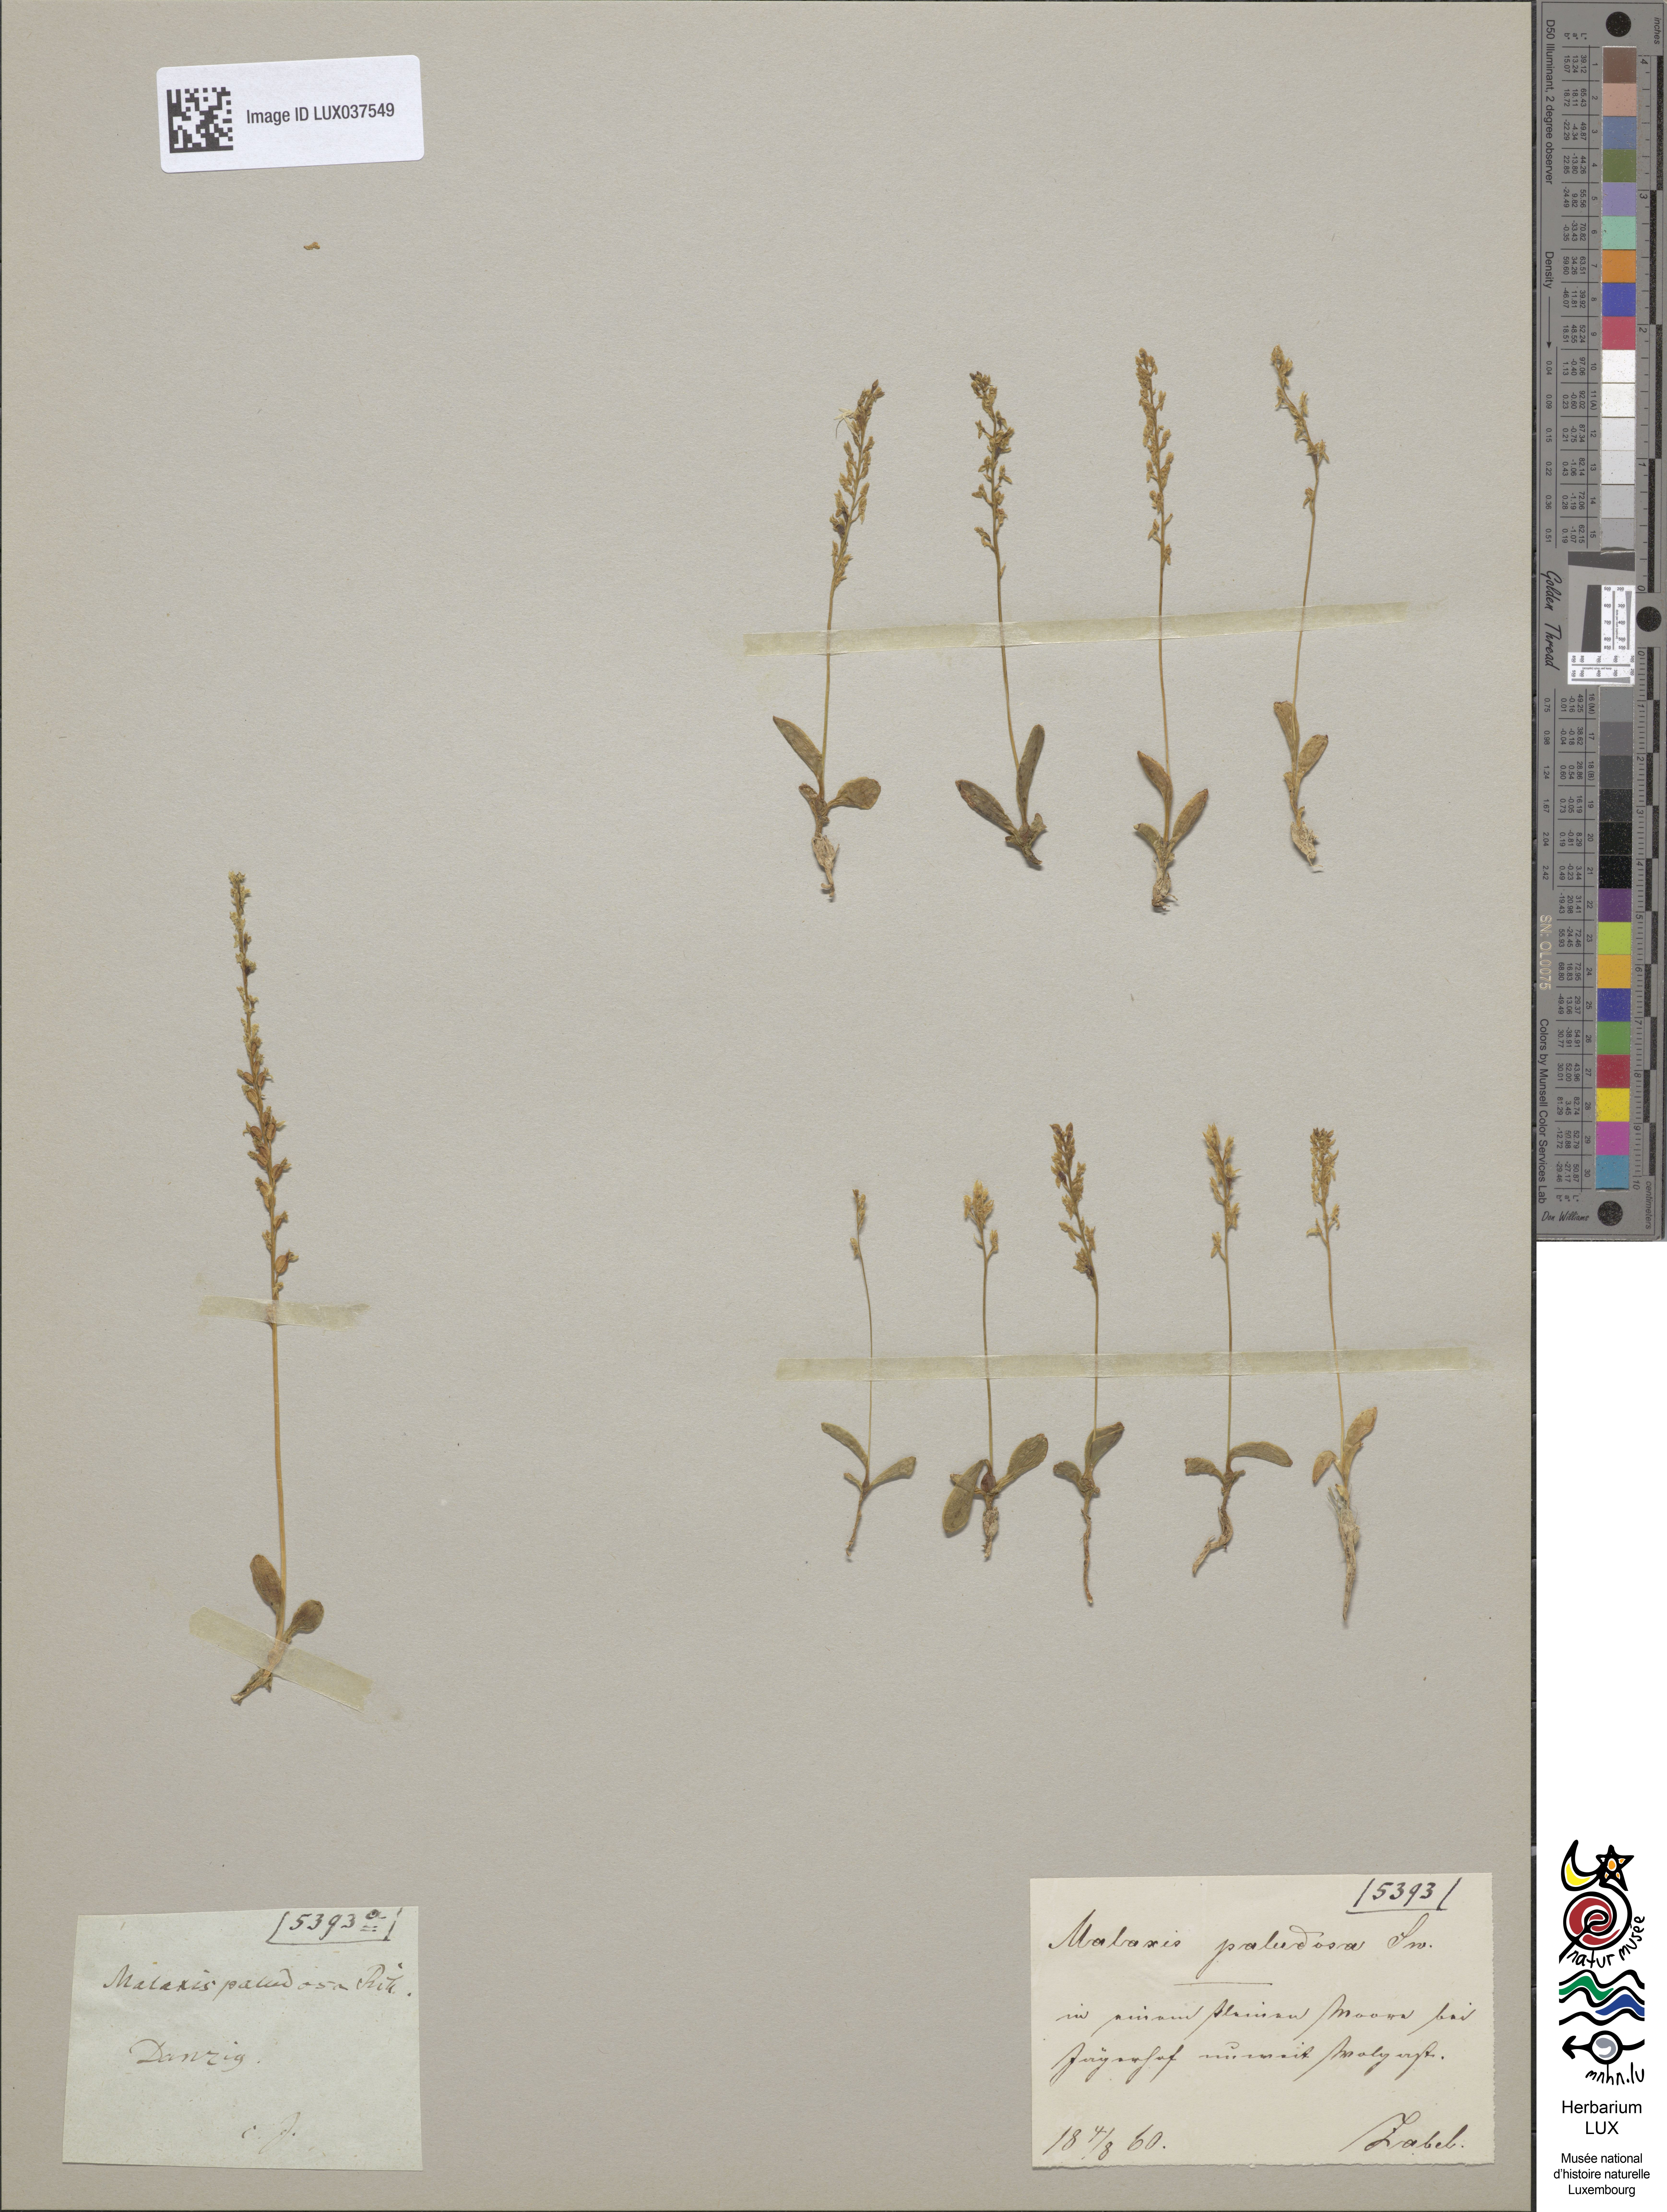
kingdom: Plantae
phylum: Tracheophyta
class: Liliopsida
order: Asparagales
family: Orchidaceae
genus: Hammarbya
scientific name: Hammarbya paludosa
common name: Bog orchid
